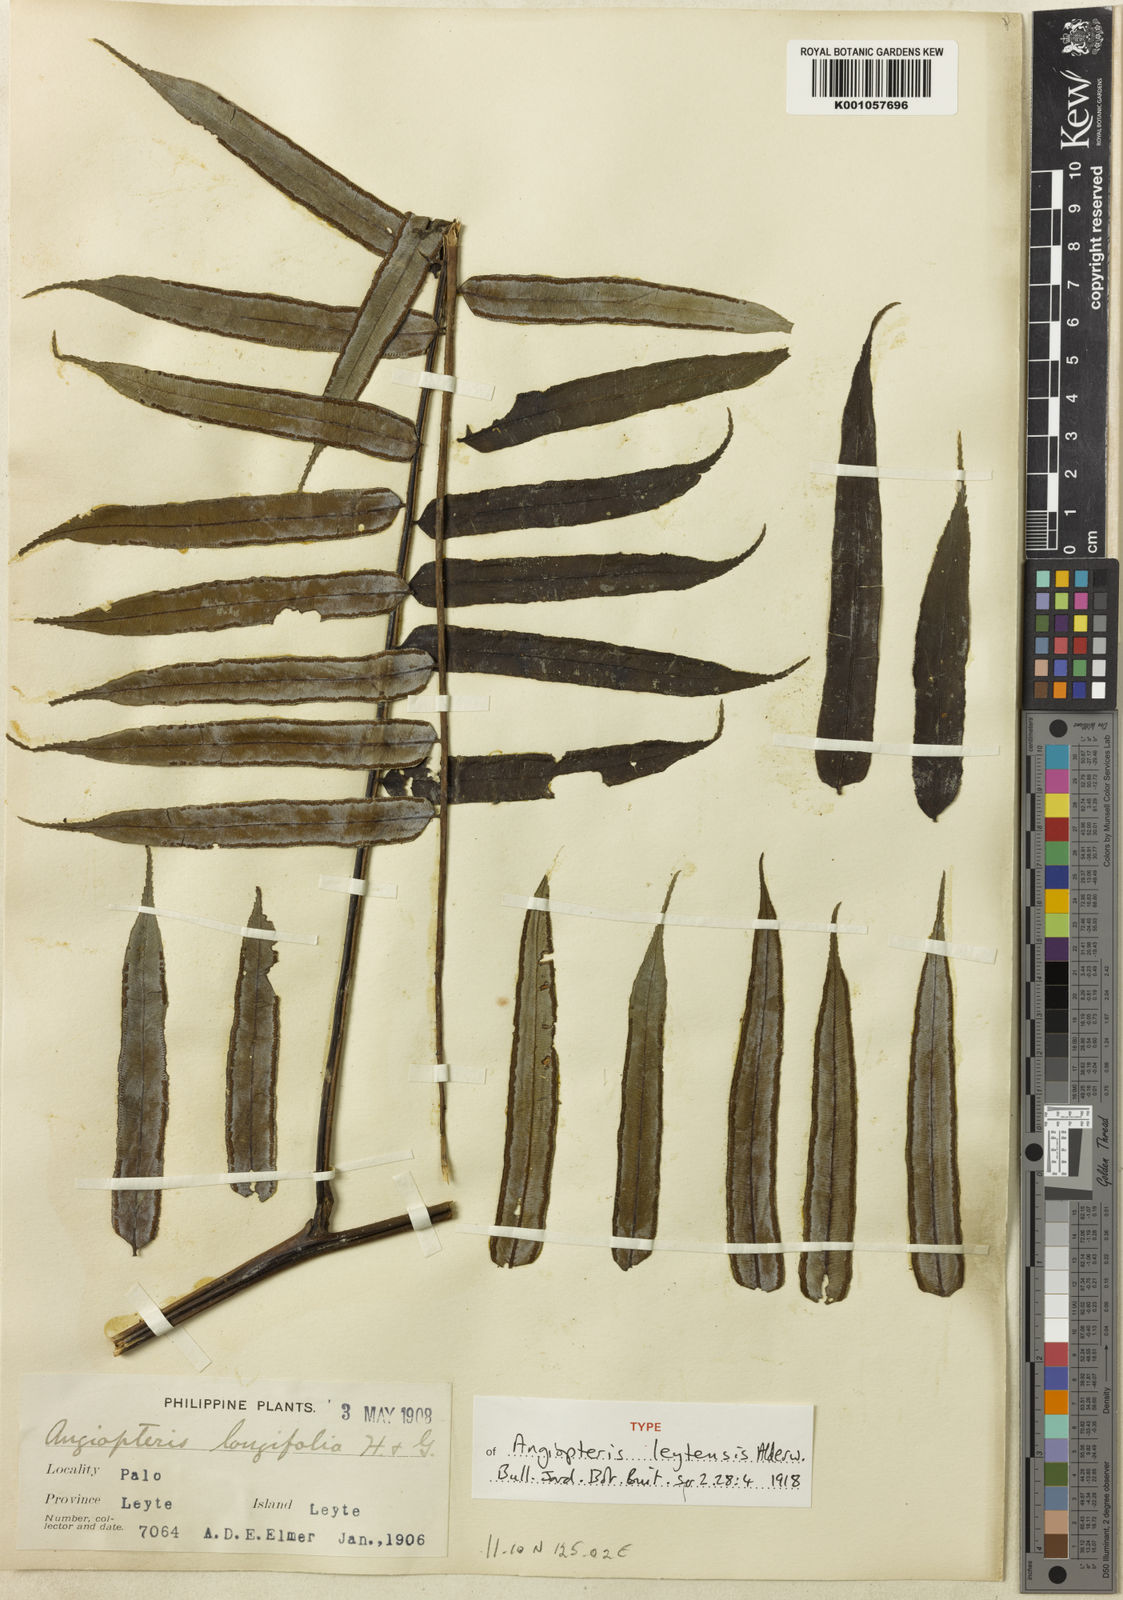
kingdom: Plantae
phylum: Tracheophyta
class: Polypodiopsida
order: Marattiales
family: Marattiaceae
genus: Angiopteris
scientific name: Angiopteris pruinosa
